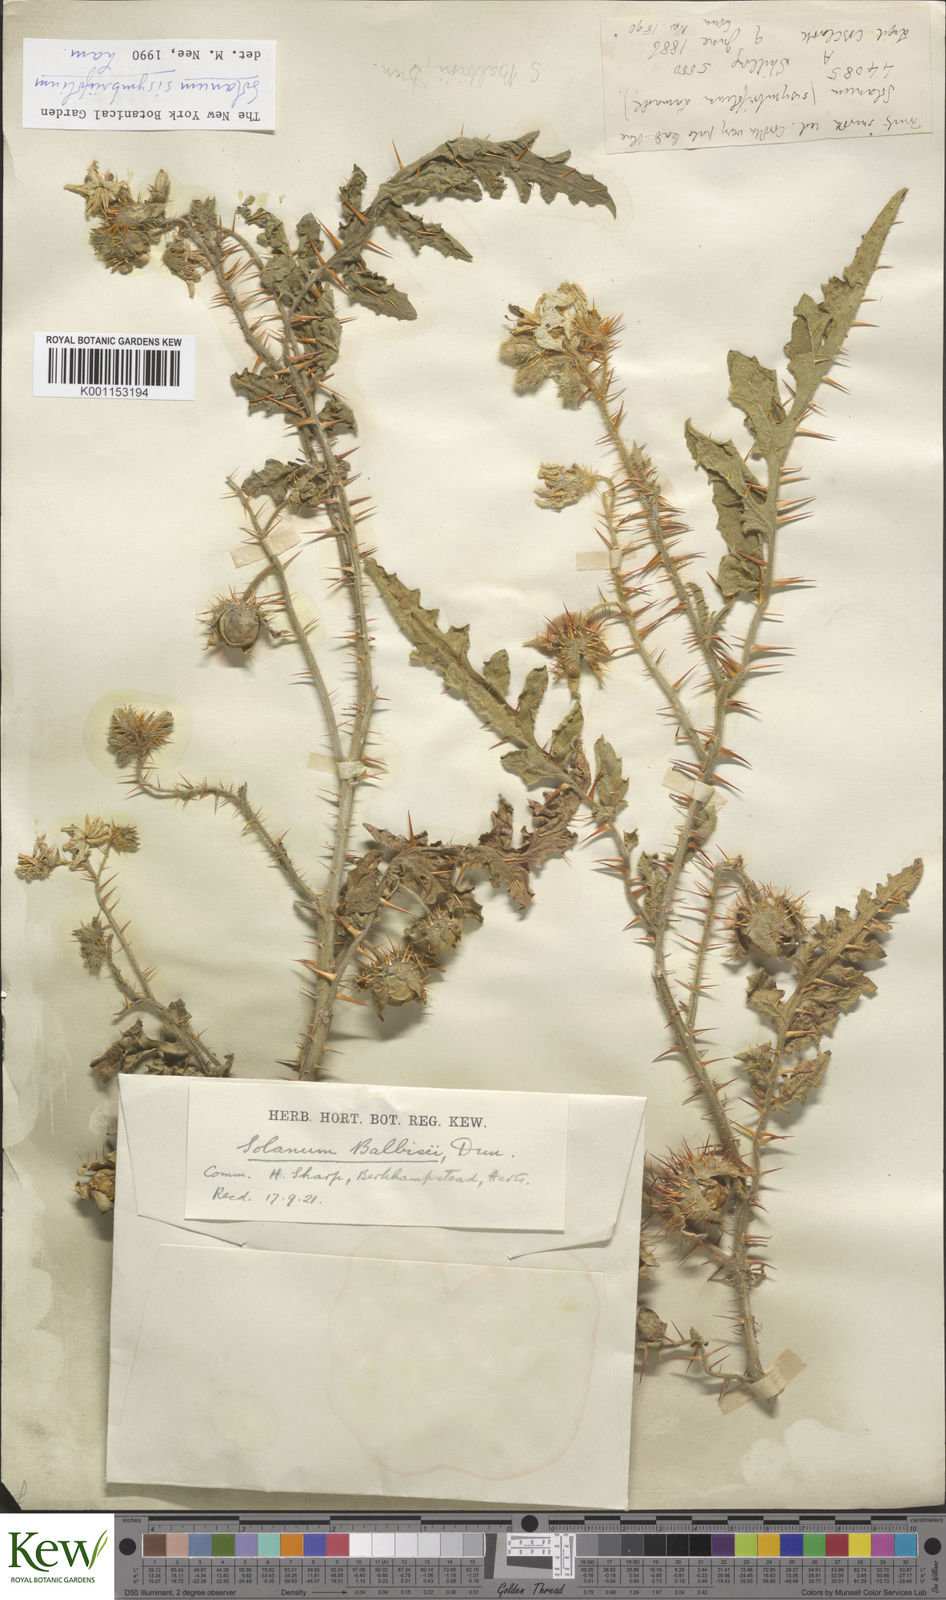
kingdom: Plantae
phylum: Tracheophyta
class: Magnoliopsida
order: Solanales
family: Solanaceae
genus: Solanum
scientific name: Solanum sisymbriifolium
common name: Red buffalo-bur
